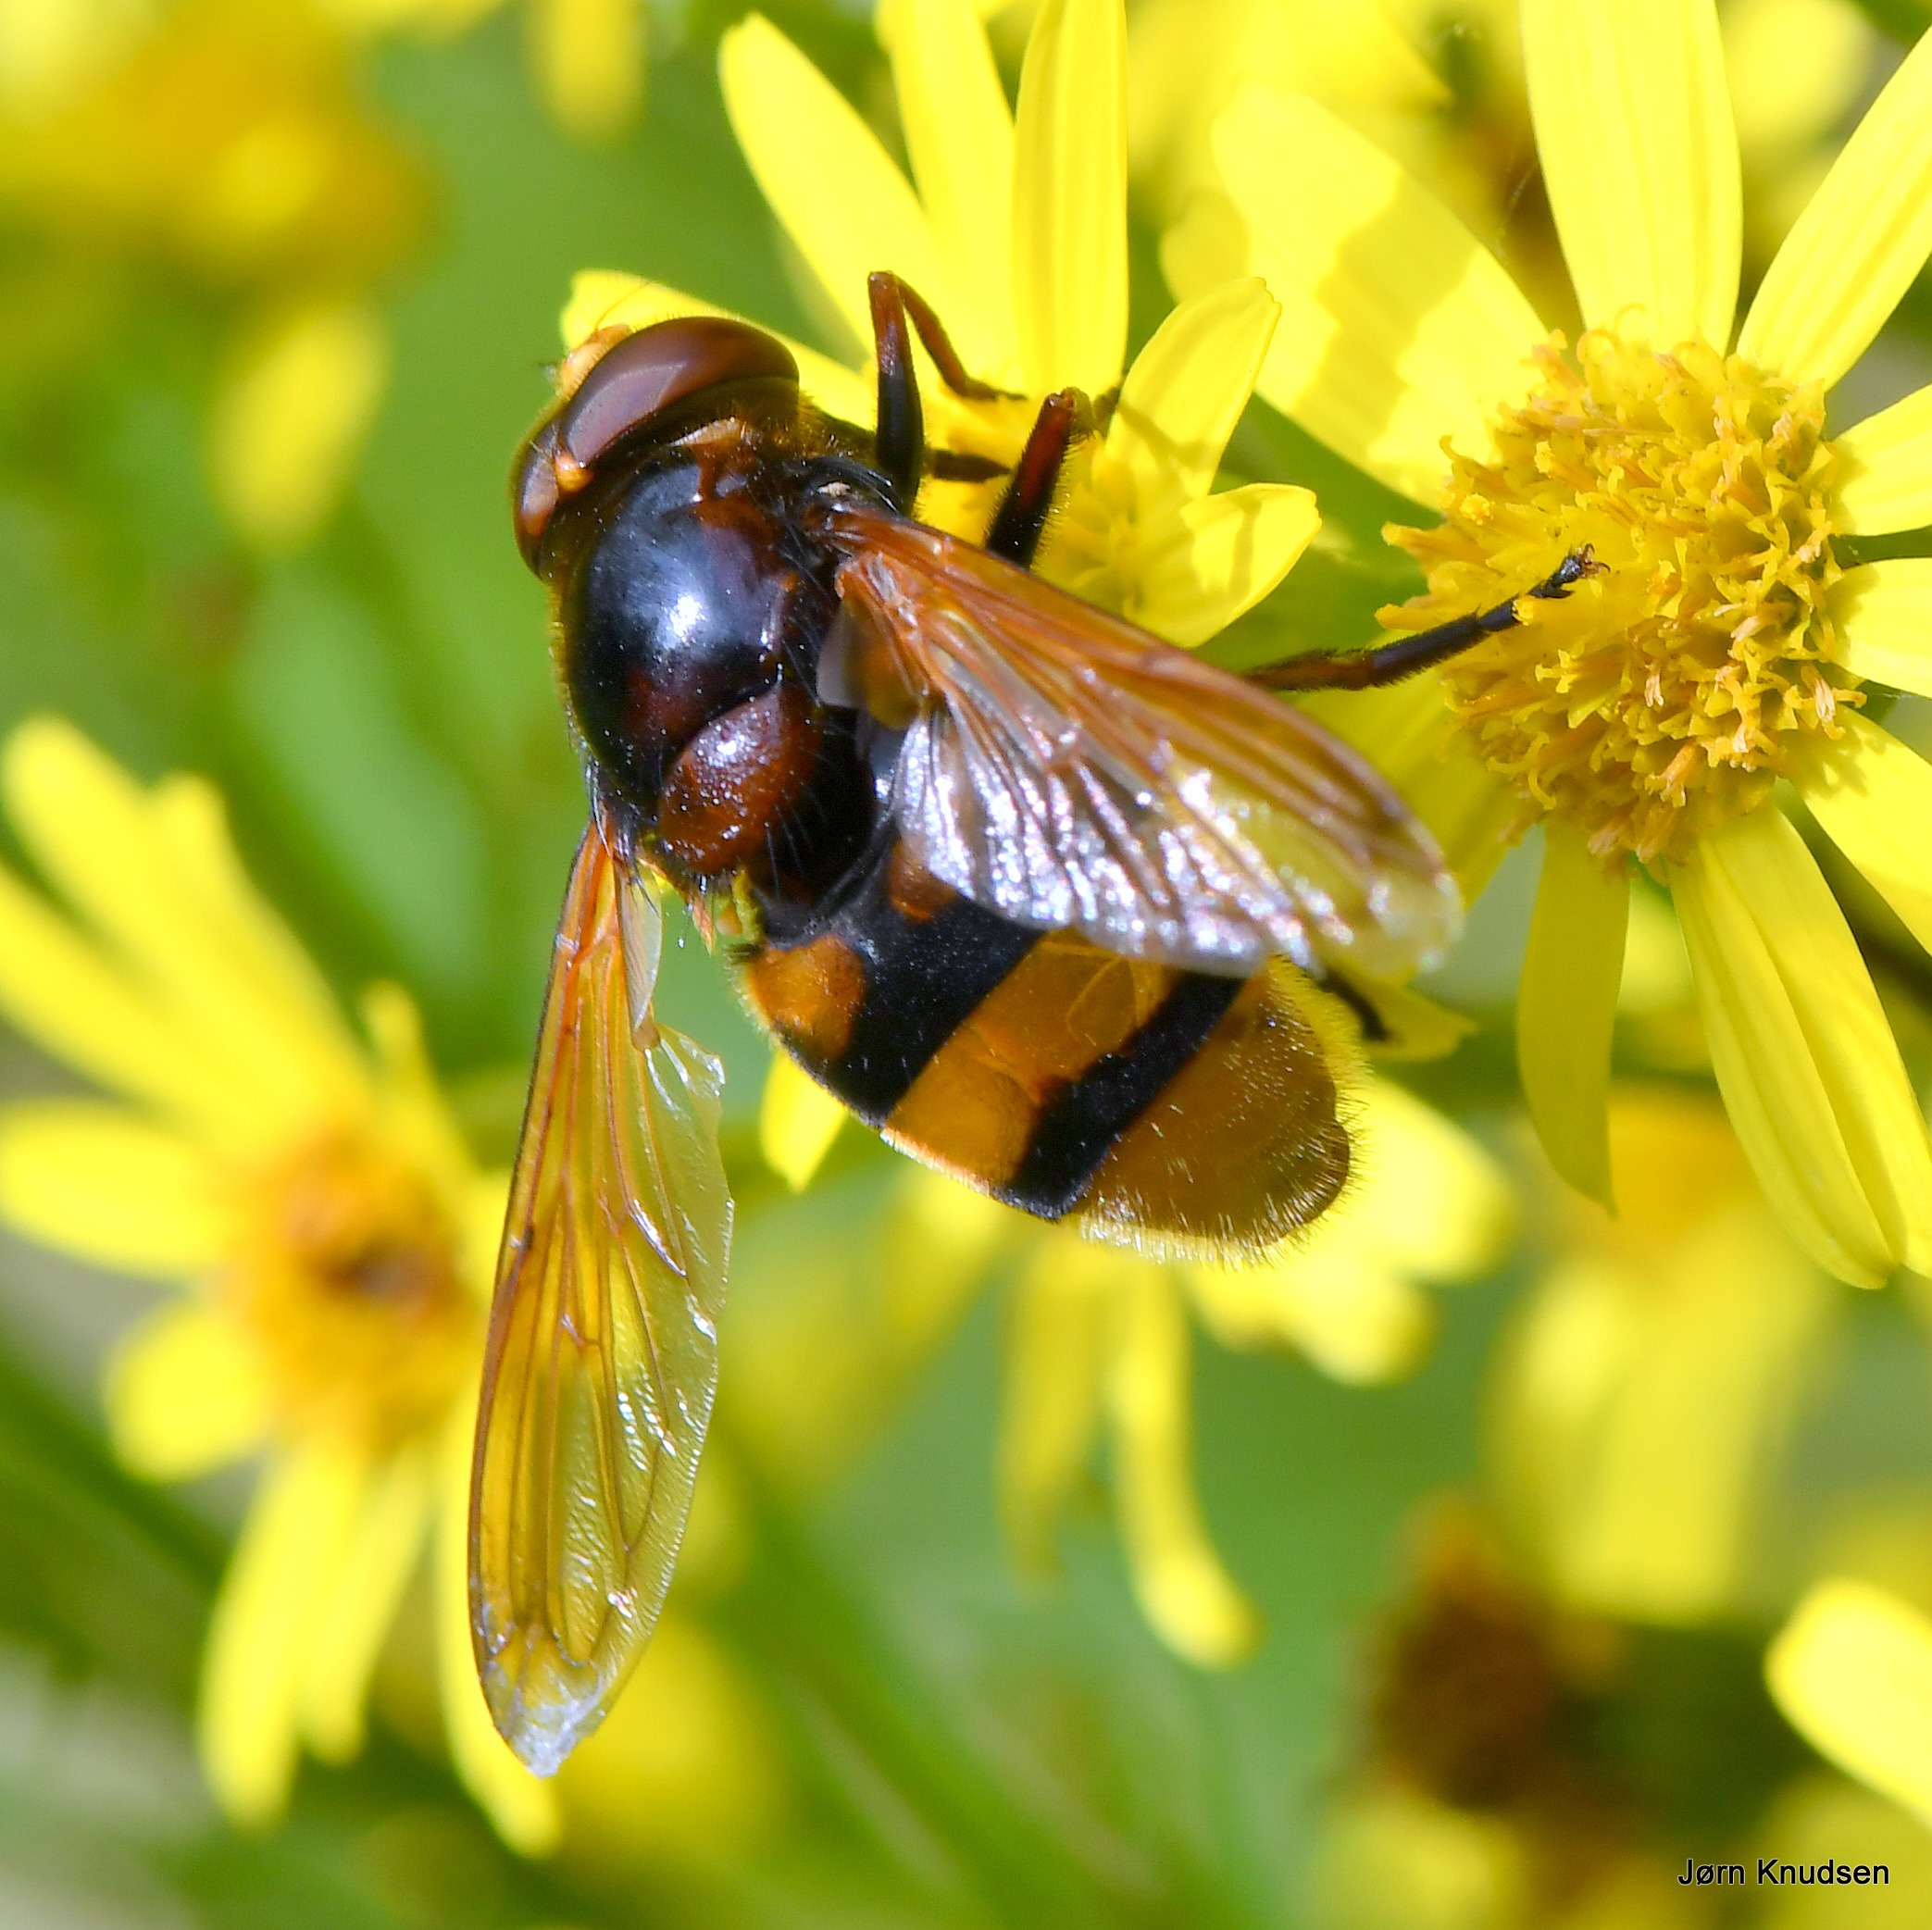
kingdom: Animalia
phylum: Arthropoda
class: Insecta
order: Diptera
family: Syrphidae
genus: Volucella
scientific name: Volucella zonaria
